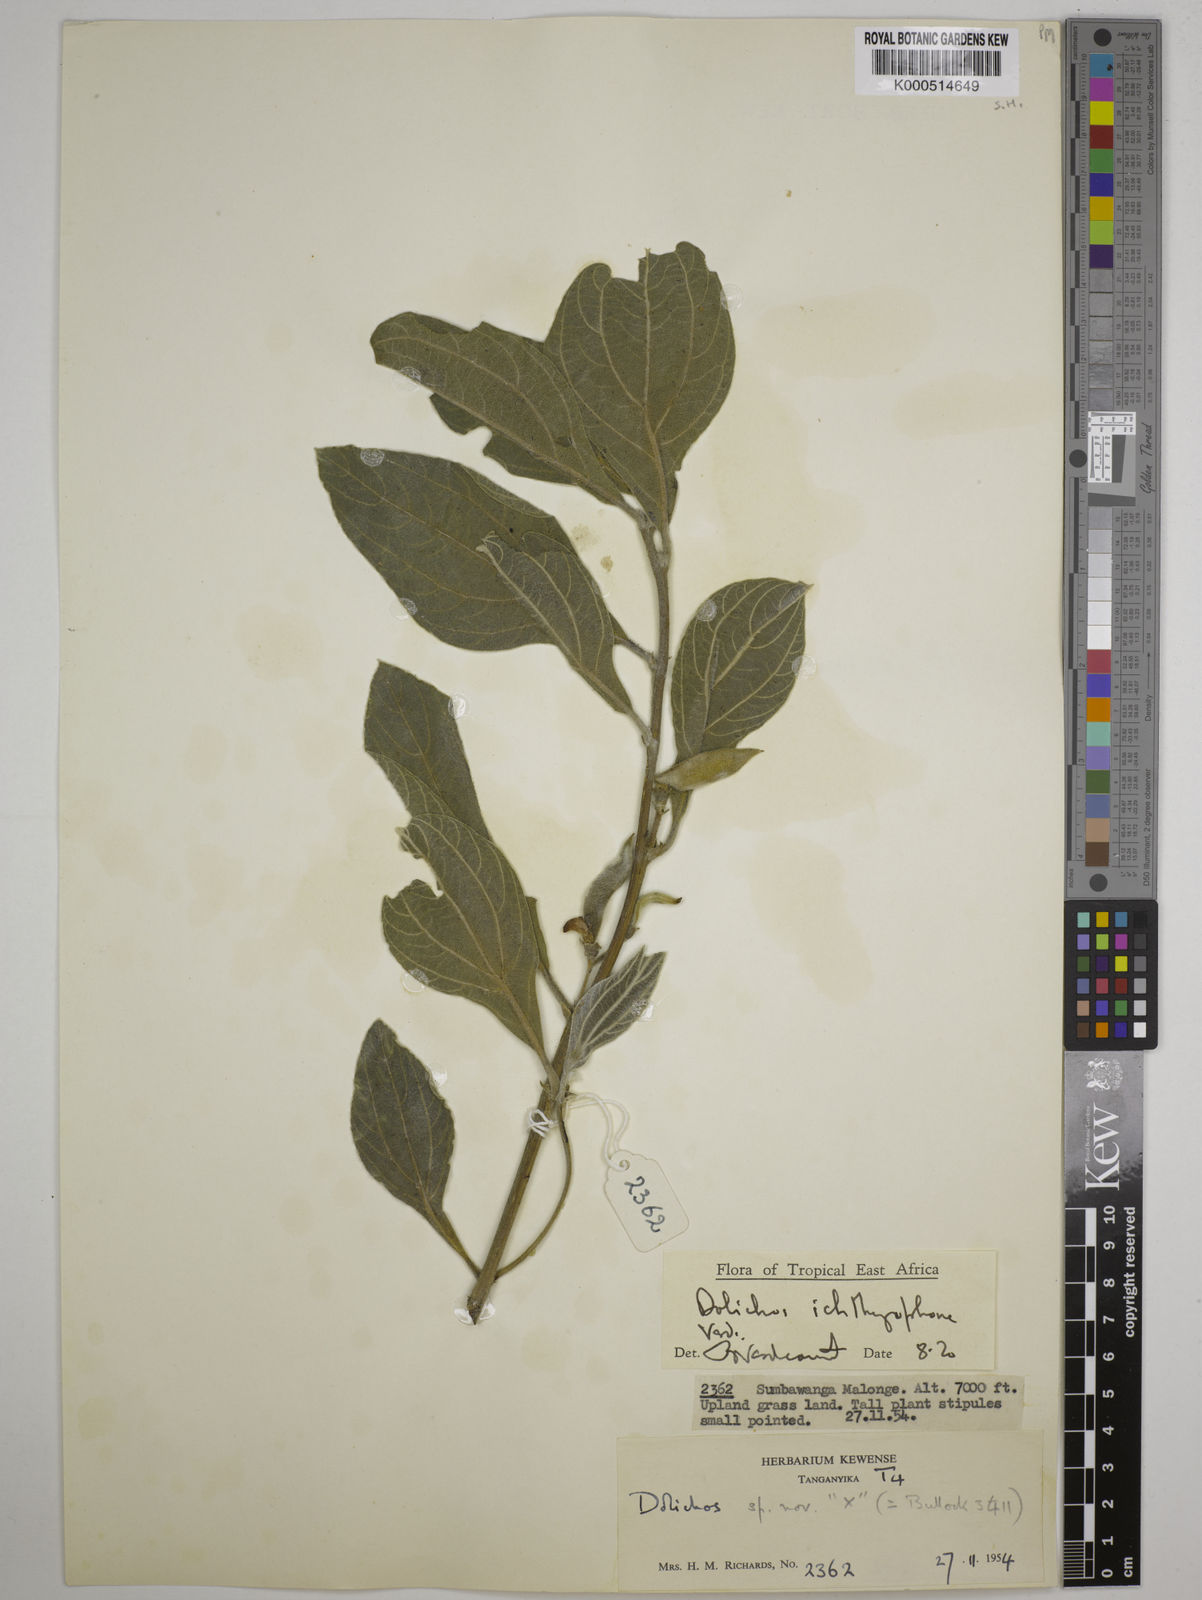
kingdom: Plantae
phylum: Tracheophyta
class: Magnoliopsida
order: Fabales
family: Fabaceae
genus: Dolichos
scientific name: Dolichos ichthyophone
